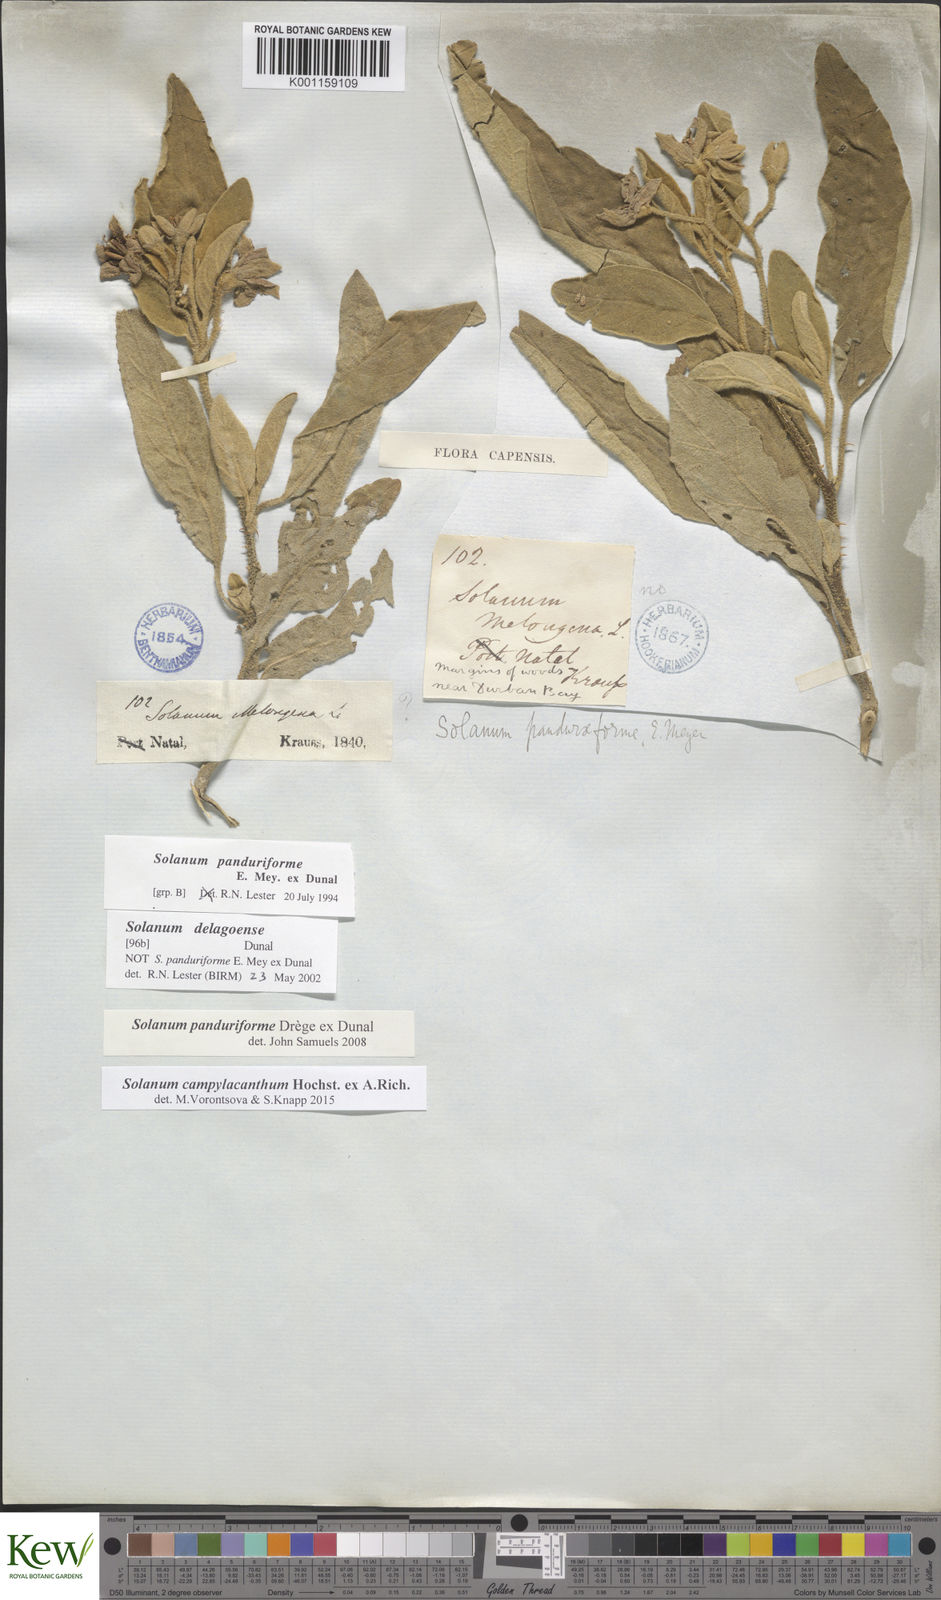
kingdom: Plantae
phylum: Tracheophyta
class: Magnoliopsida
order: Solanales
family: Solanaceae
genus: Solanum
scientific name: Solanum campylacanthum
